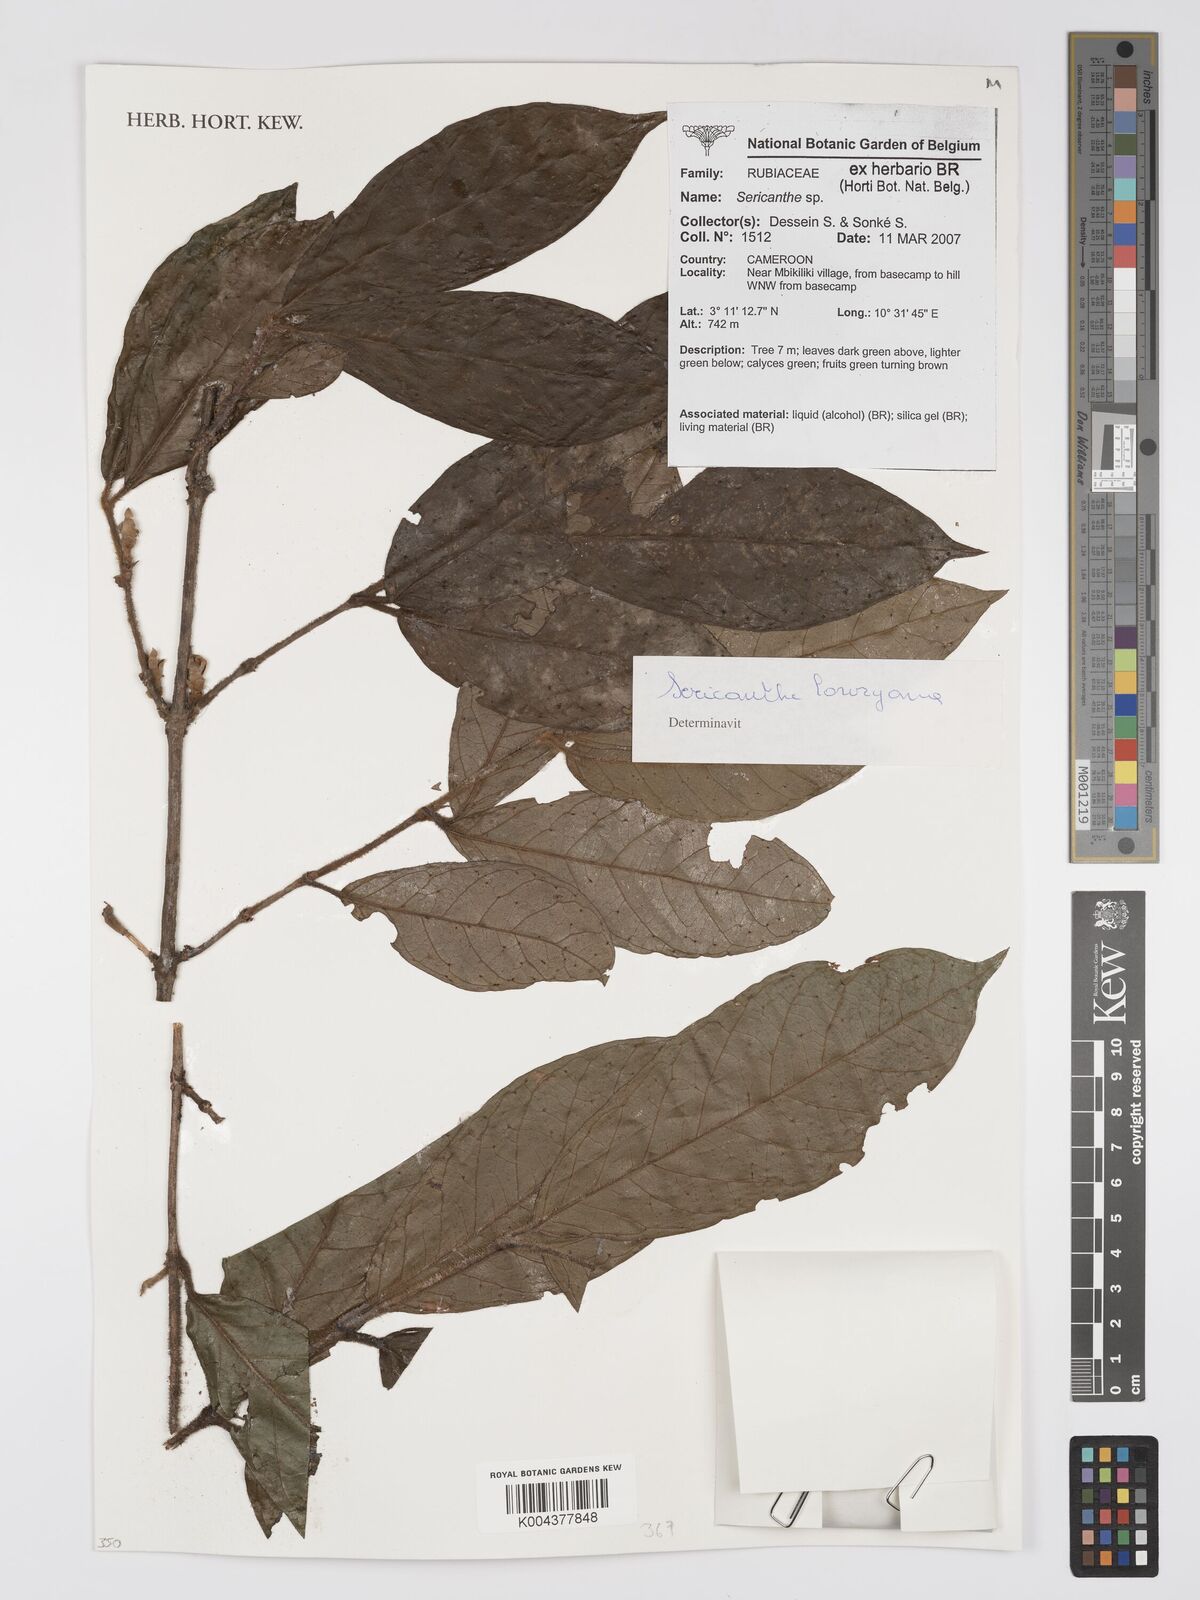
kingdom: Plantae
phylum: Tracheophyta
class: Magnoliopsida
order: Gentianales
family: Rubiaceae
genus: Sericanthe
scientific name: Sericanthe lowryana
